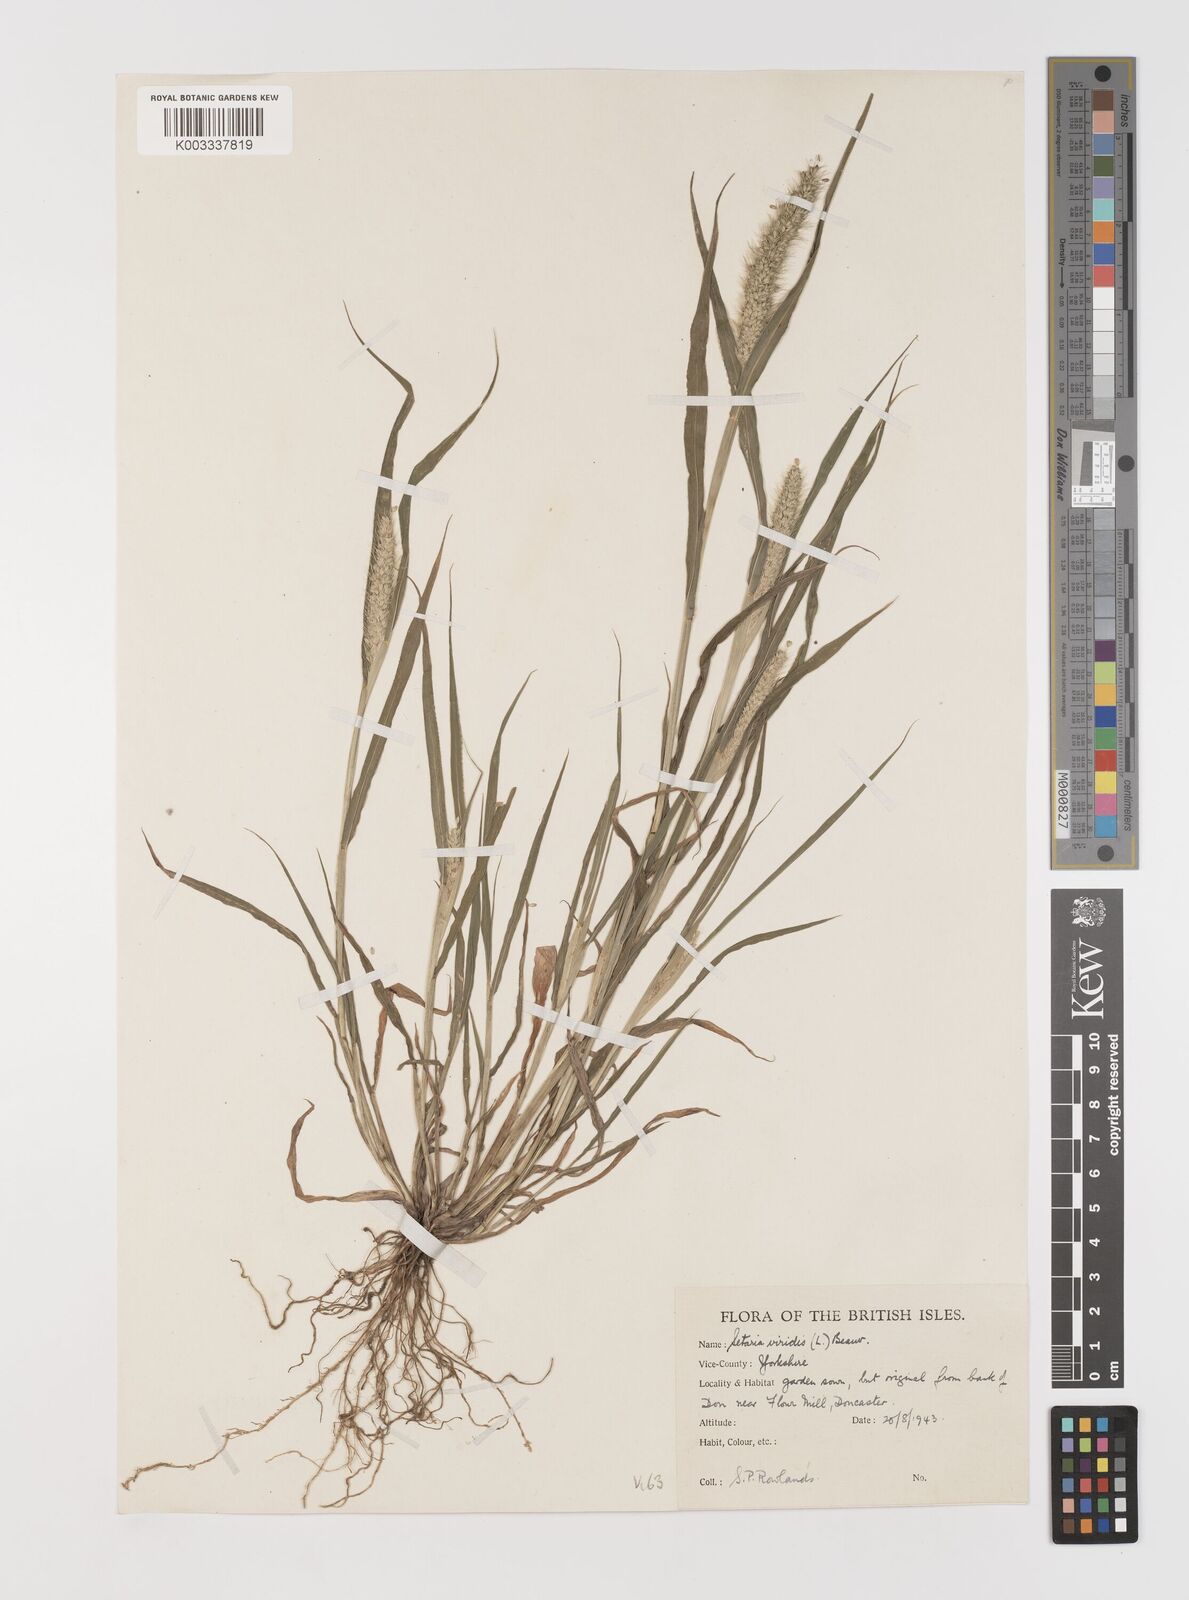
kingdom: Plantae
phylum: Tracheophyta
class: Liliopsida
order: Poales
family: Poaceae
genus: Setaria
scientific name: Setaria viridis
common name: Green bristlegrass
